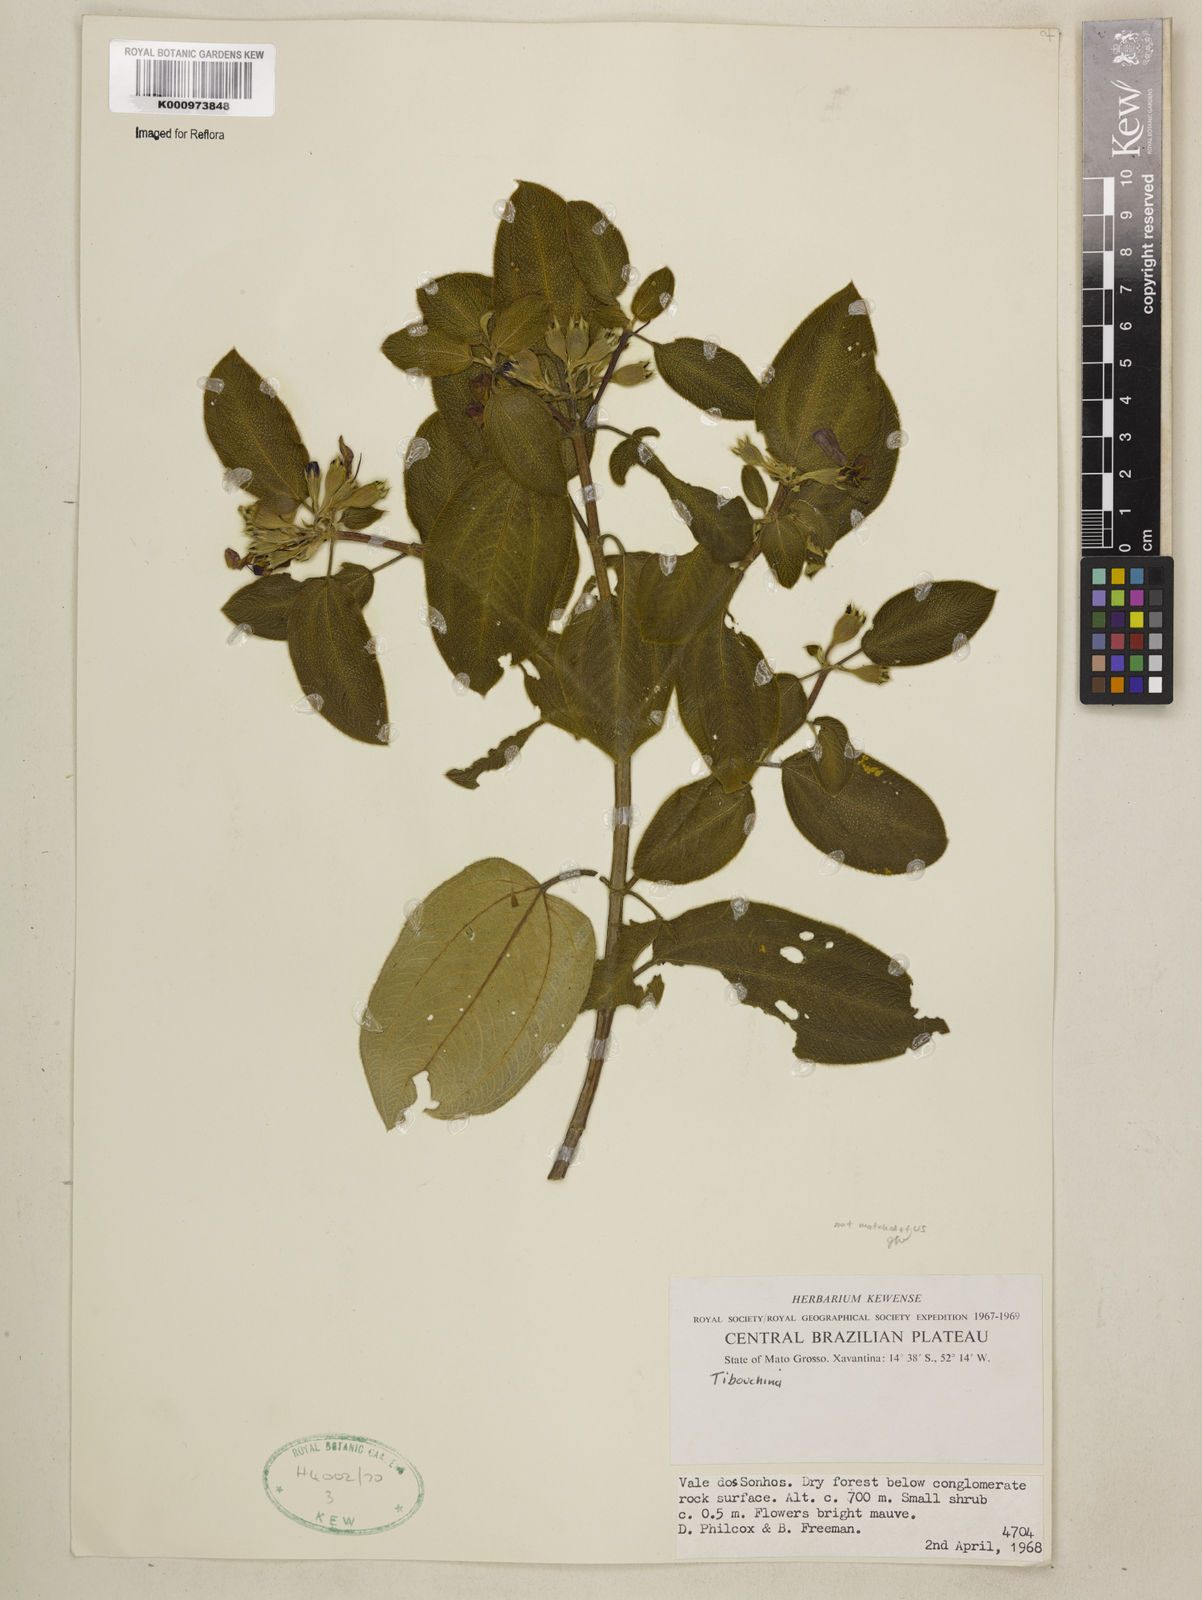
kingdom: Plantae
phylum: Tracheophyta
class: Magnoliopsida
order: Myrtales
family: Melastomataceae
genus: Tibouchina
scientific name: Tibouchina
